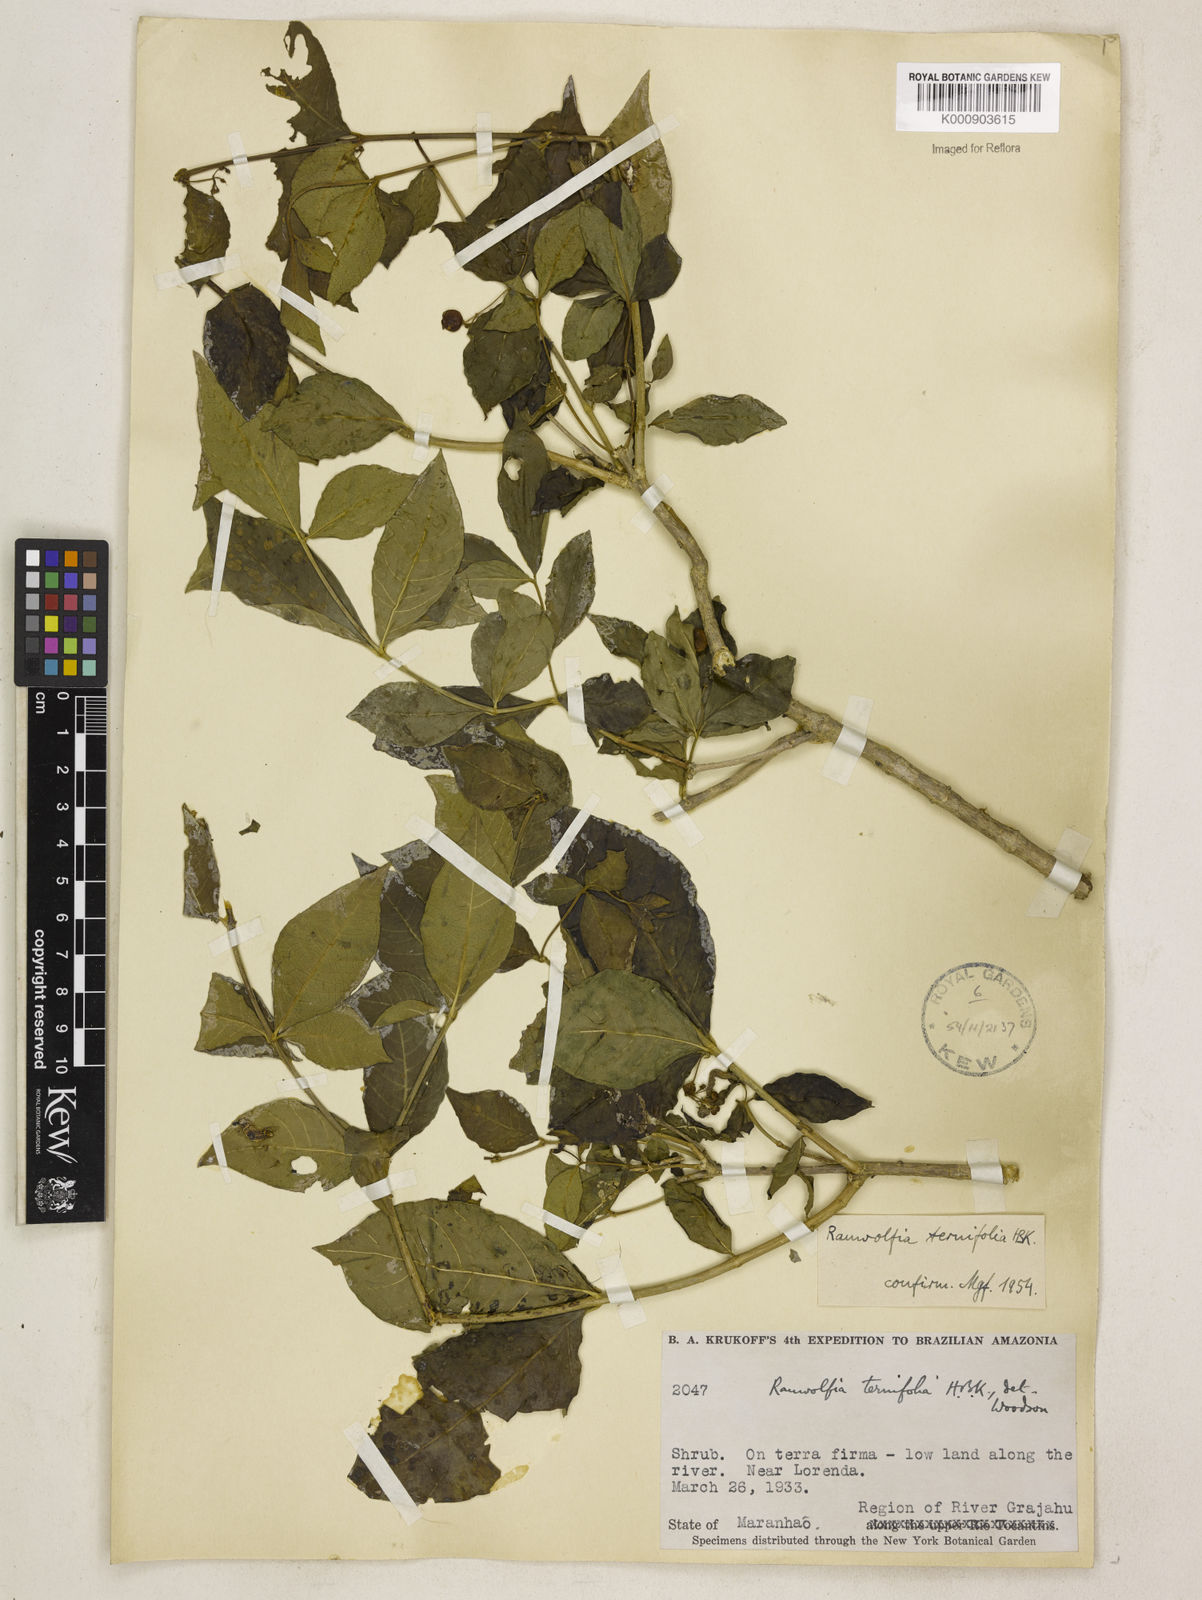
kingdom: Plantae
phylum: Tracheophyta
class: Magnoliopsida
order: Gentianales
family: Apocynaceae
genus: Rauvolfia
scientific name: Rauvolfia
